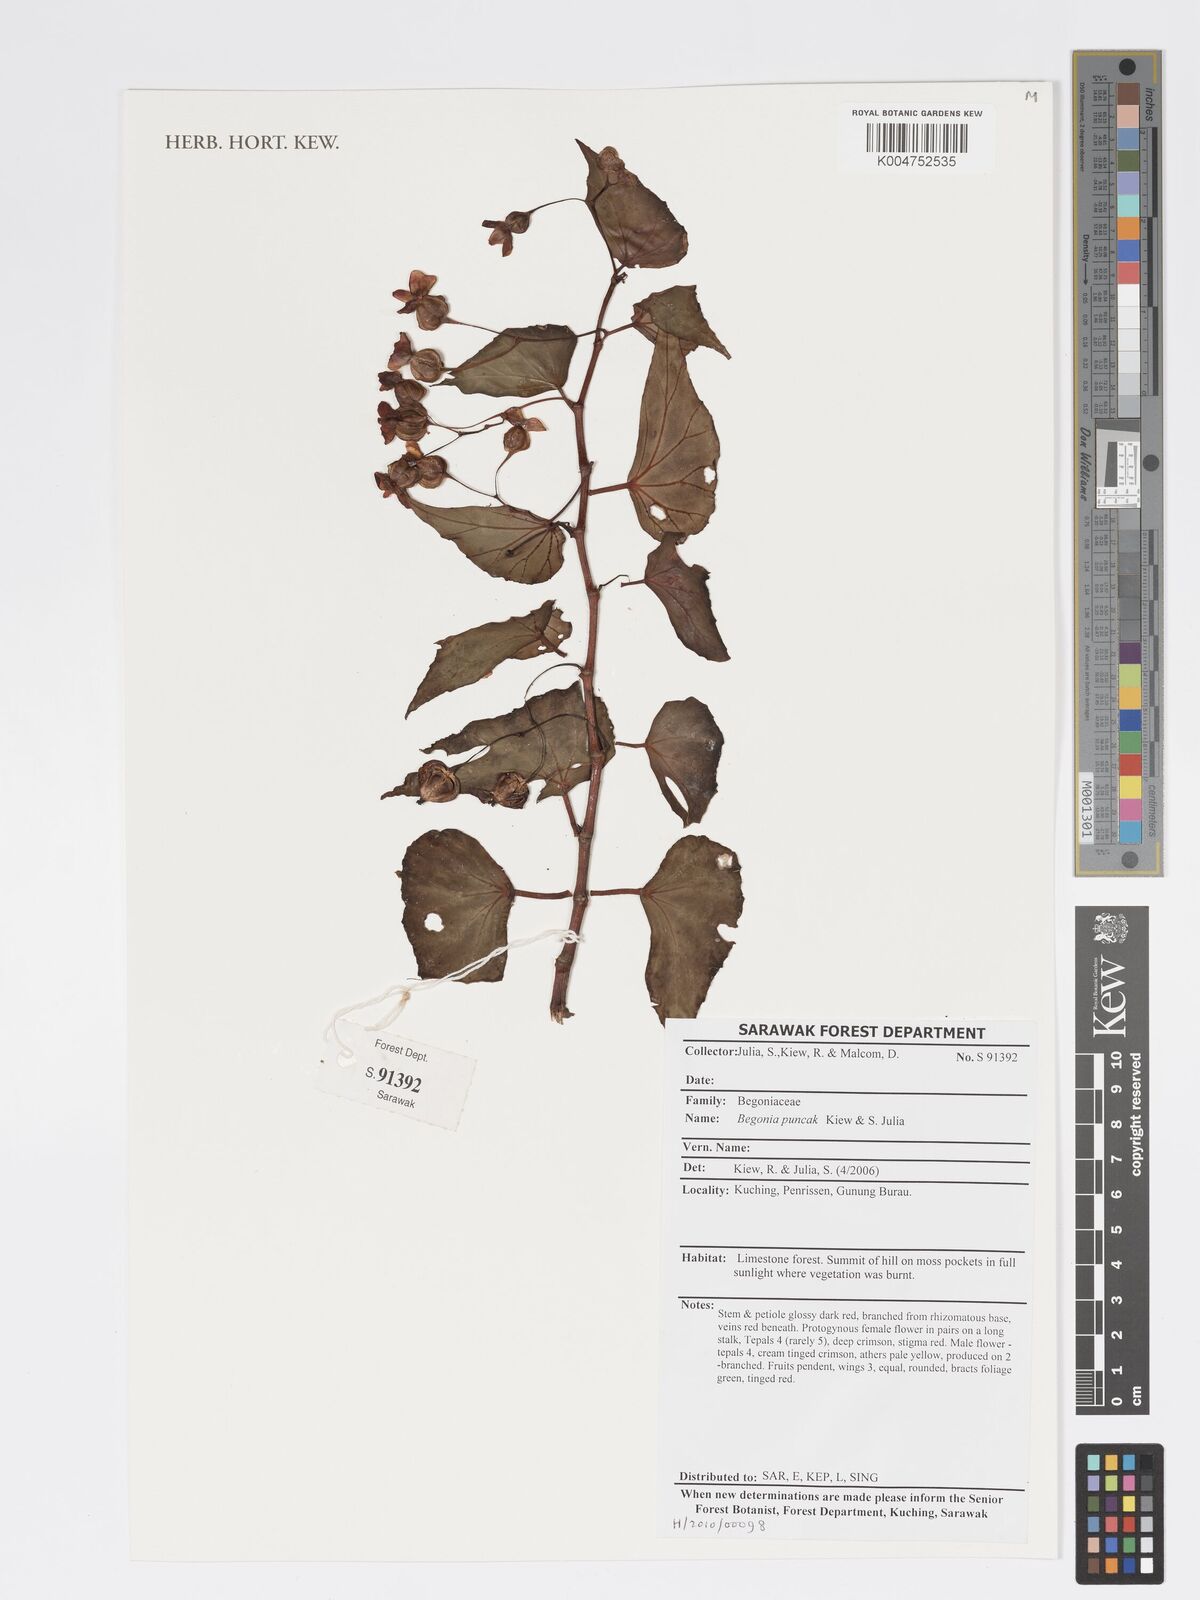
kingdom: Plantae
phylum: Tracheophyta
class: Magnoliopsida
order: Cucurbitales
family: Begoniaceae
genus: Begonia
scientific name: Begonia punchak
